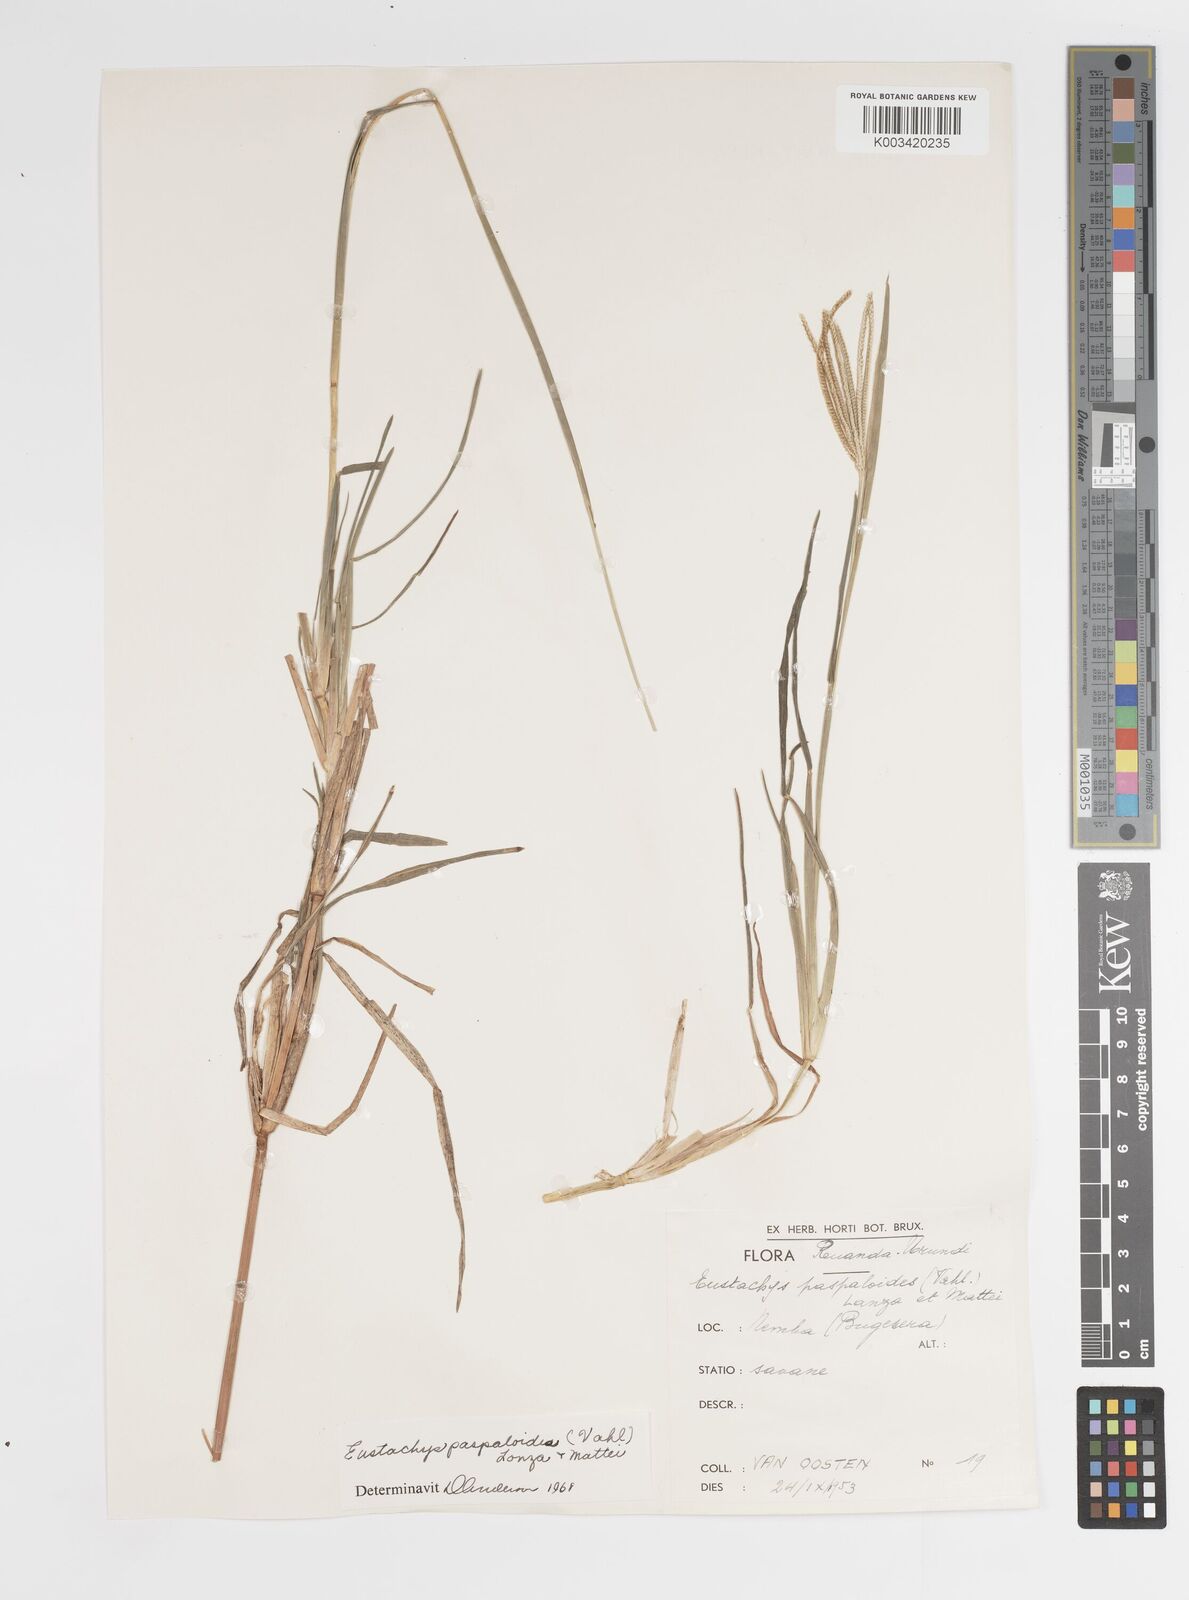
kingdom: Plantae
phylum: Tracheophyta
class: Liliopsida
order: Poales
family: Poaceae
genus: Eustachys
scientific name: Eustachys paspaloides
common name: Caribbean fingergrass
